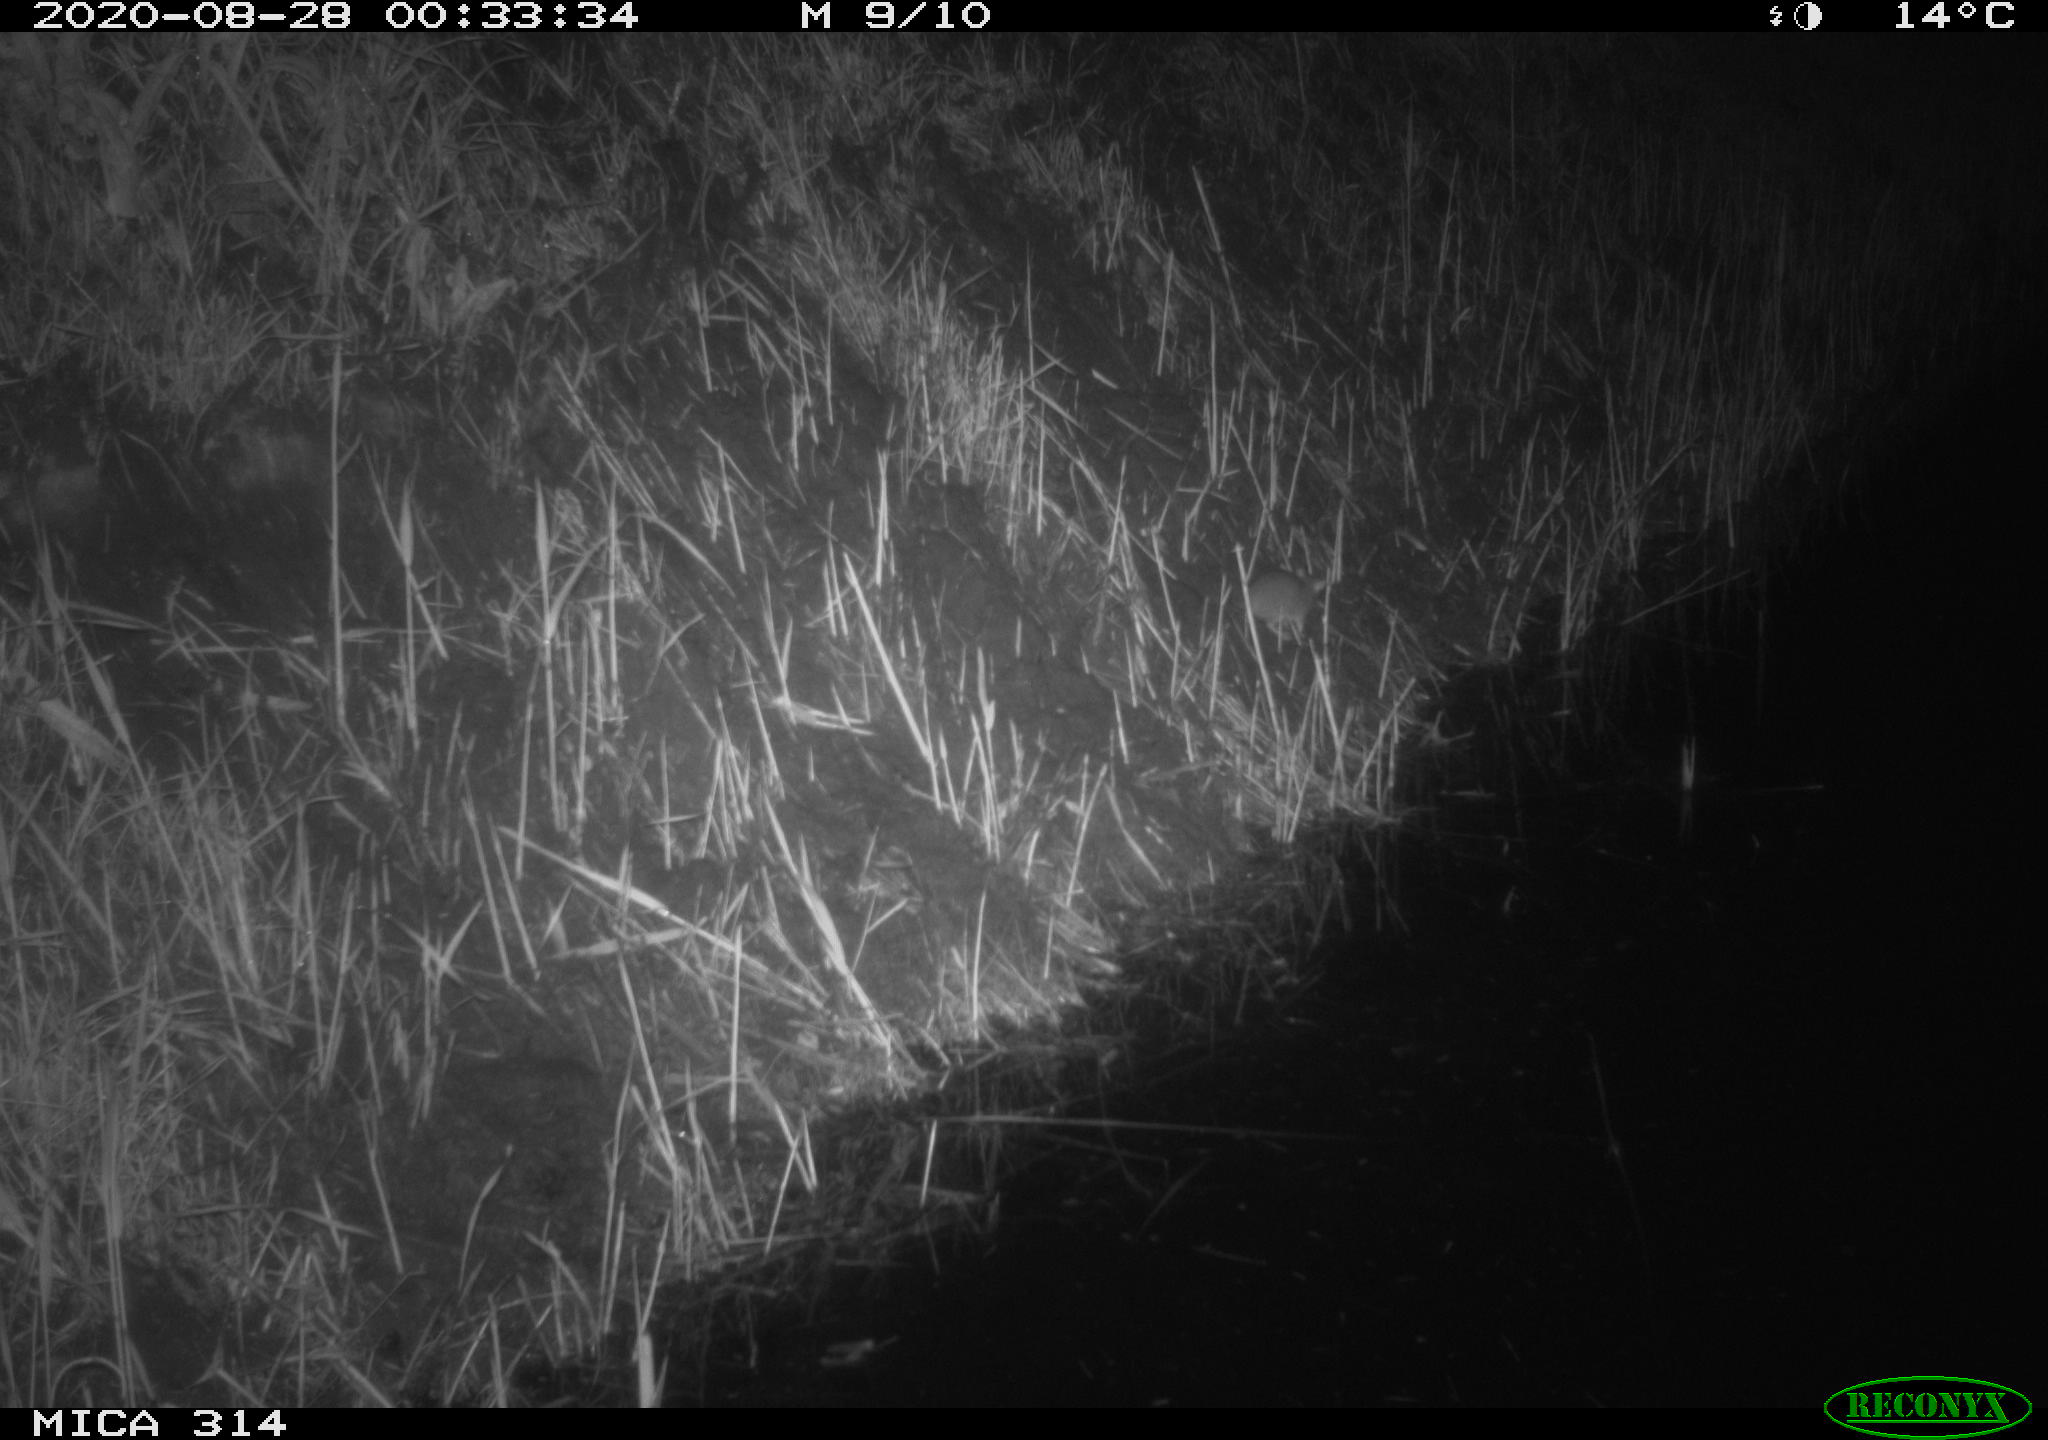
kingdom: Animalia
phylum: Chordata
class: Mammalia
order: Rodentia
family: Muridae
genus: Rattus
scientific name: Rattus norvegicus
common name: Brown rat
